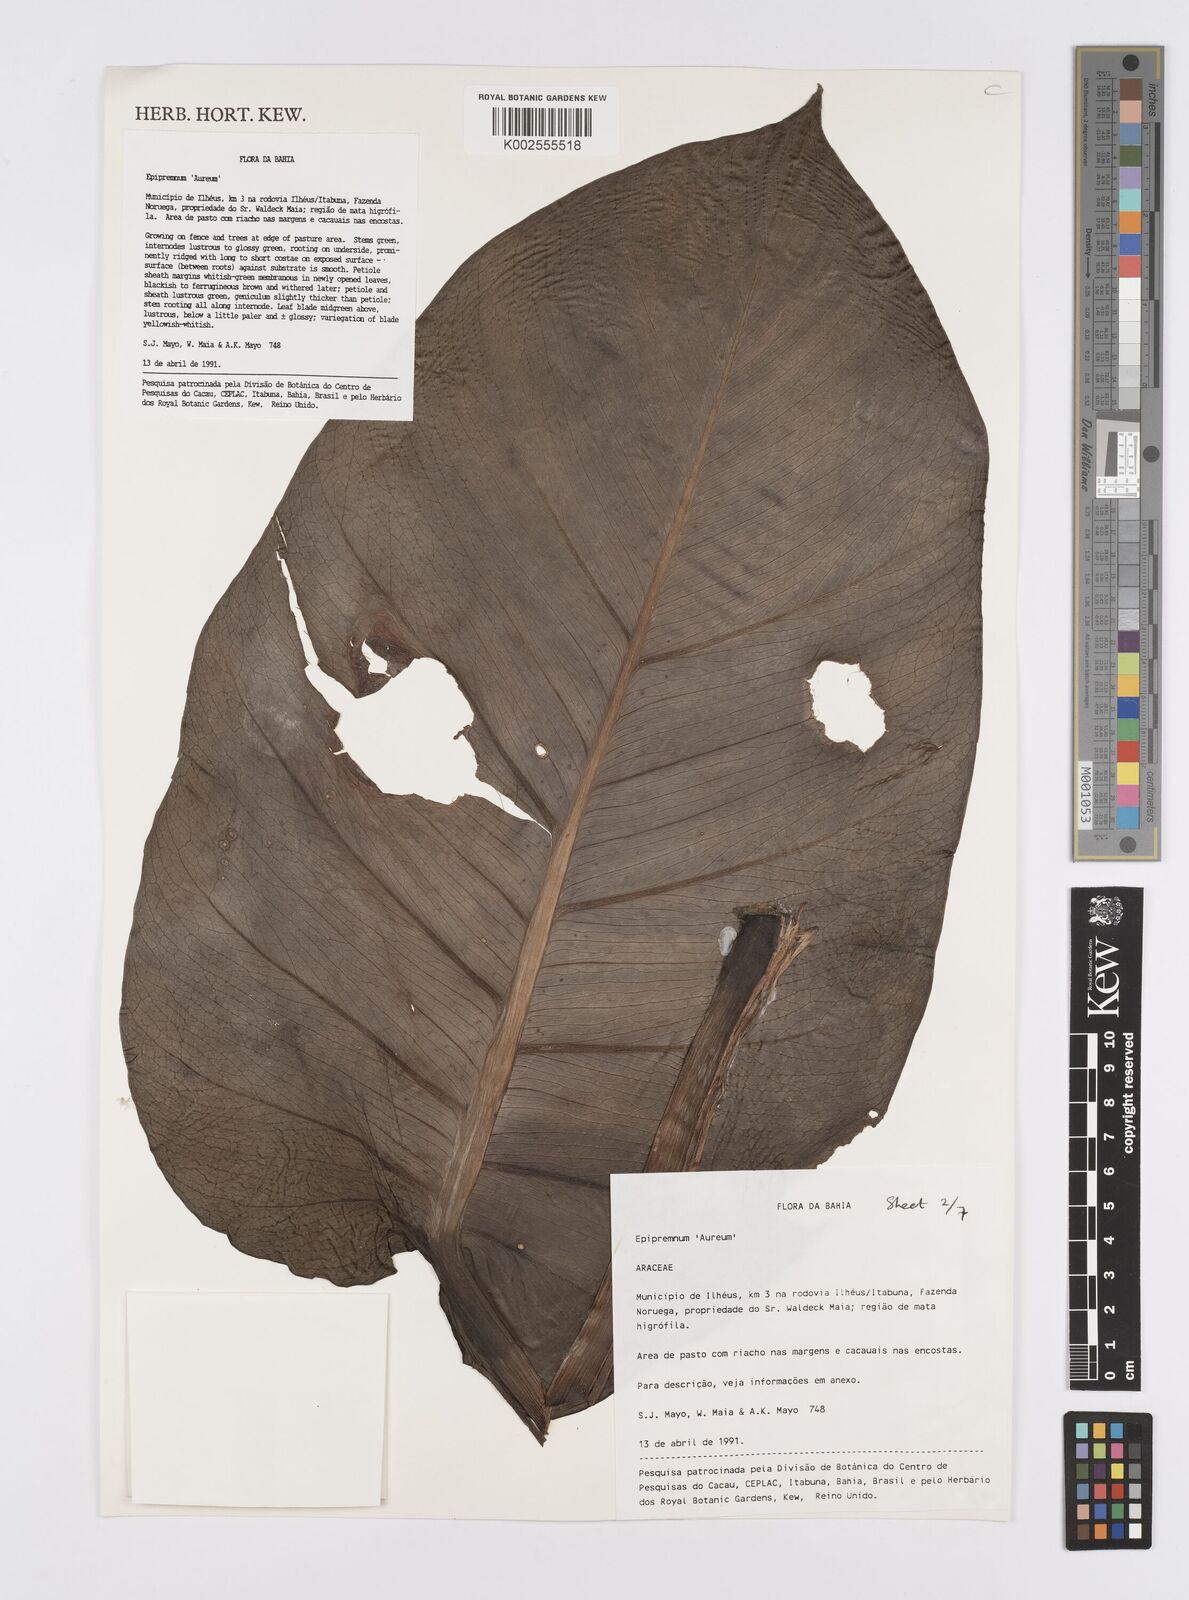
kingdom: Plantae
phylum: Tracheophyta
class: Liliopsida
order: Alismatales
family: Araceae
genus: Epipremnum
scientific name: Epipremnum aureum
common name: Golden hunter's-robe
